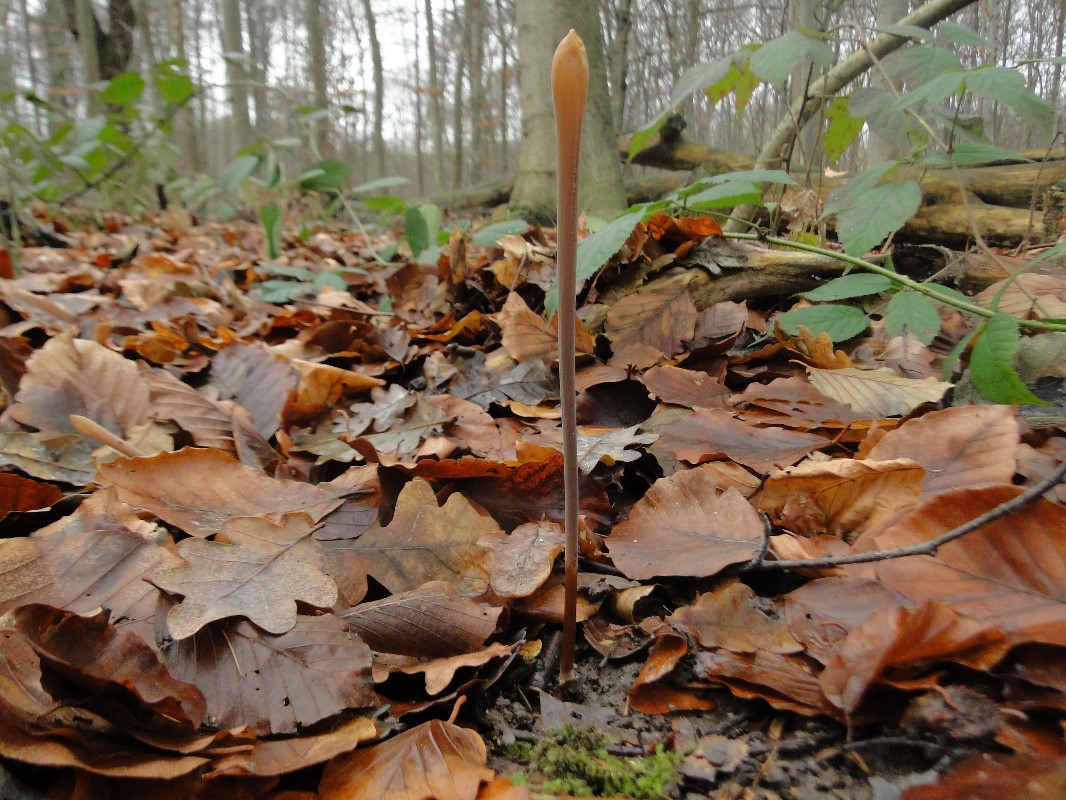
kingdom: Fungi
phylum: Basidiomycota
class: Agaricomycetes
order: Agaricales
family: Typhulaceae
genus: Typhula
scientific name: Typhula fistulosa
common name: pibet rørkølle
